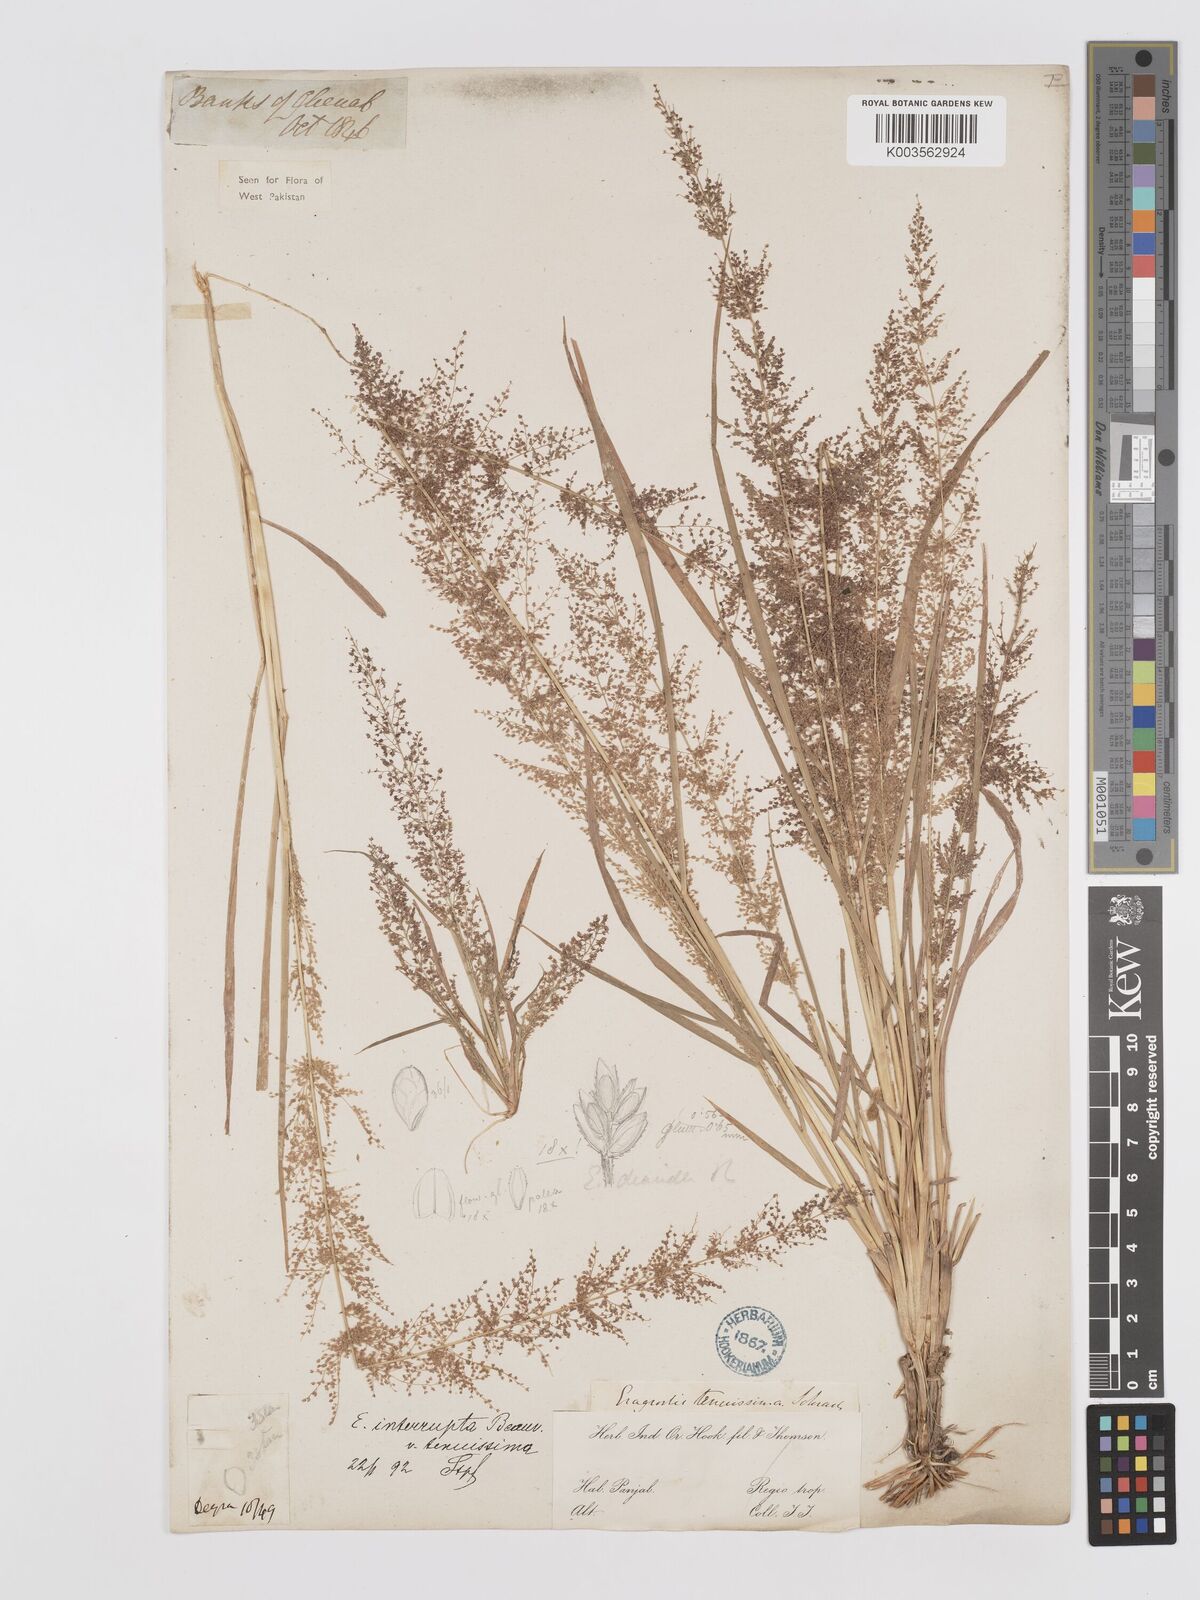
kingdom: Plantae
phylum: Tracheophyta
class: Liliopsida
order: Poales
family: Poaceae
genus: Eragrostis
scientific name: Eragrostis japonica
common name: Pond lovegrass
